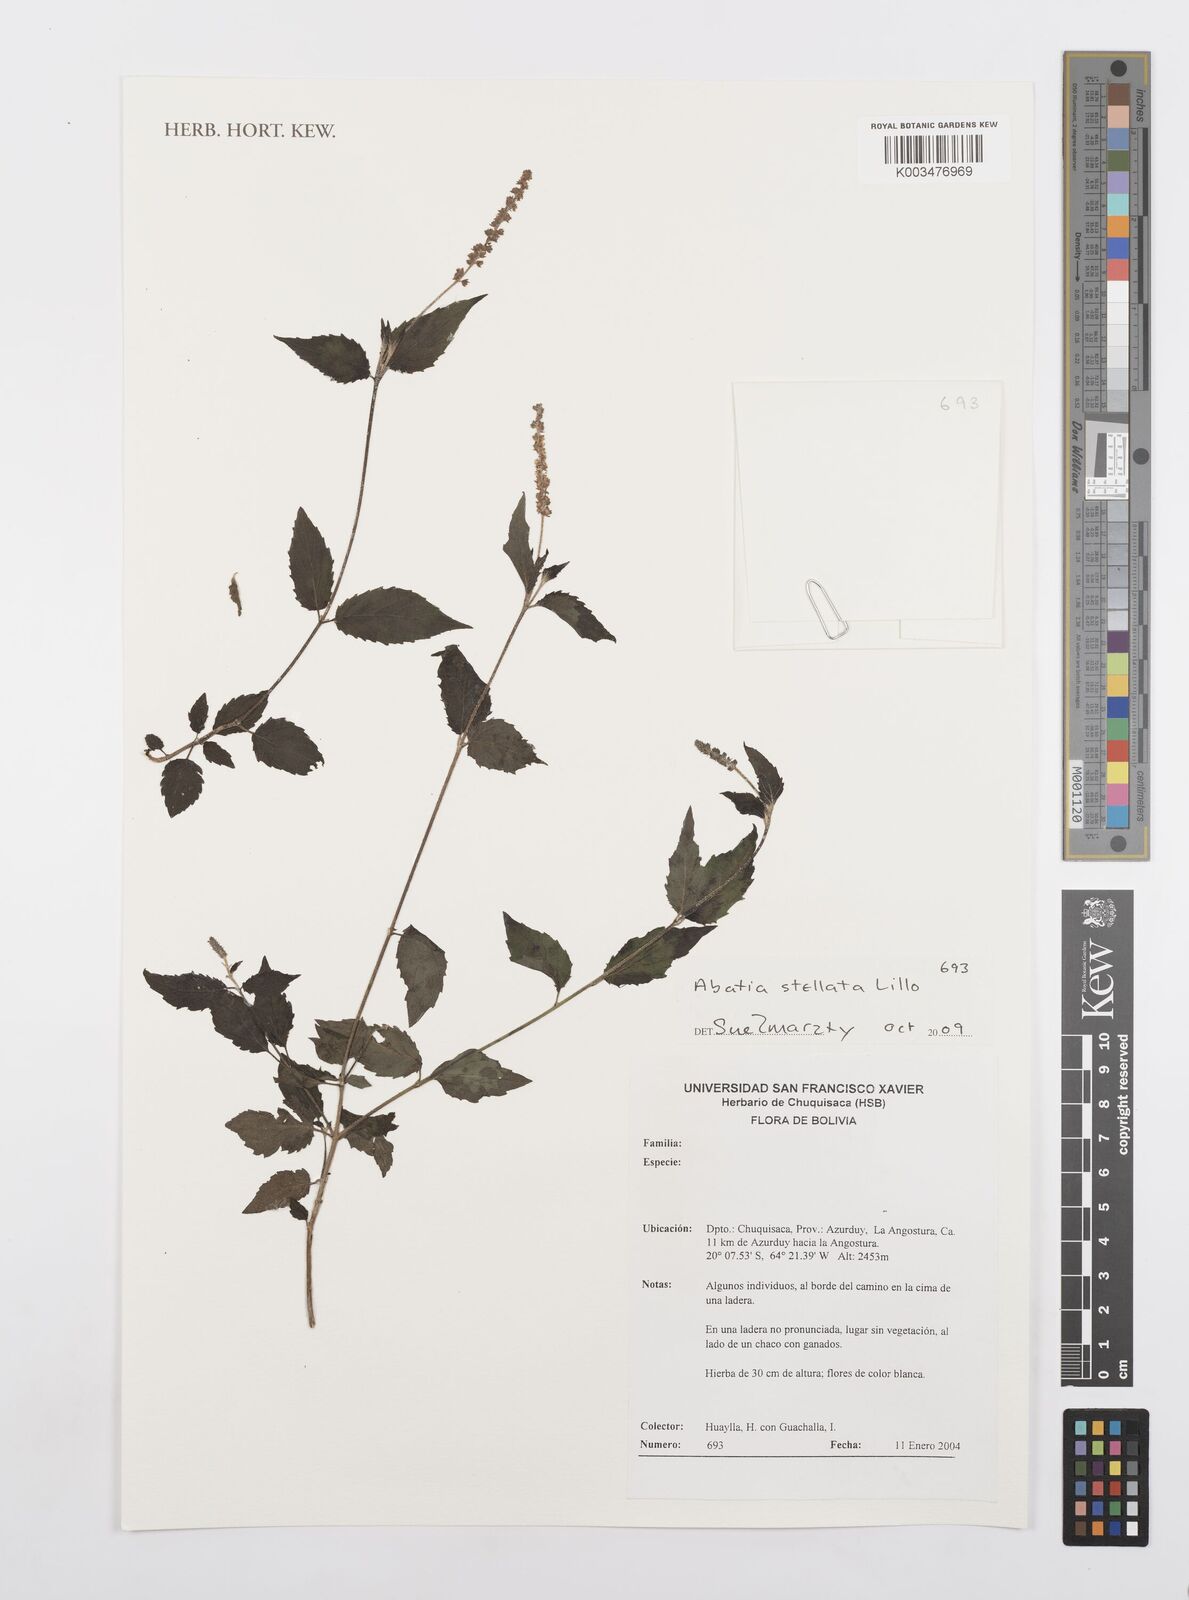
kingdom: Plantae
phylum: Tracheophyta
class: Magnoliopsida
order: Malpighiales
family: Salicaceae
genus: Abatia
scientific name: Abatia stellata
